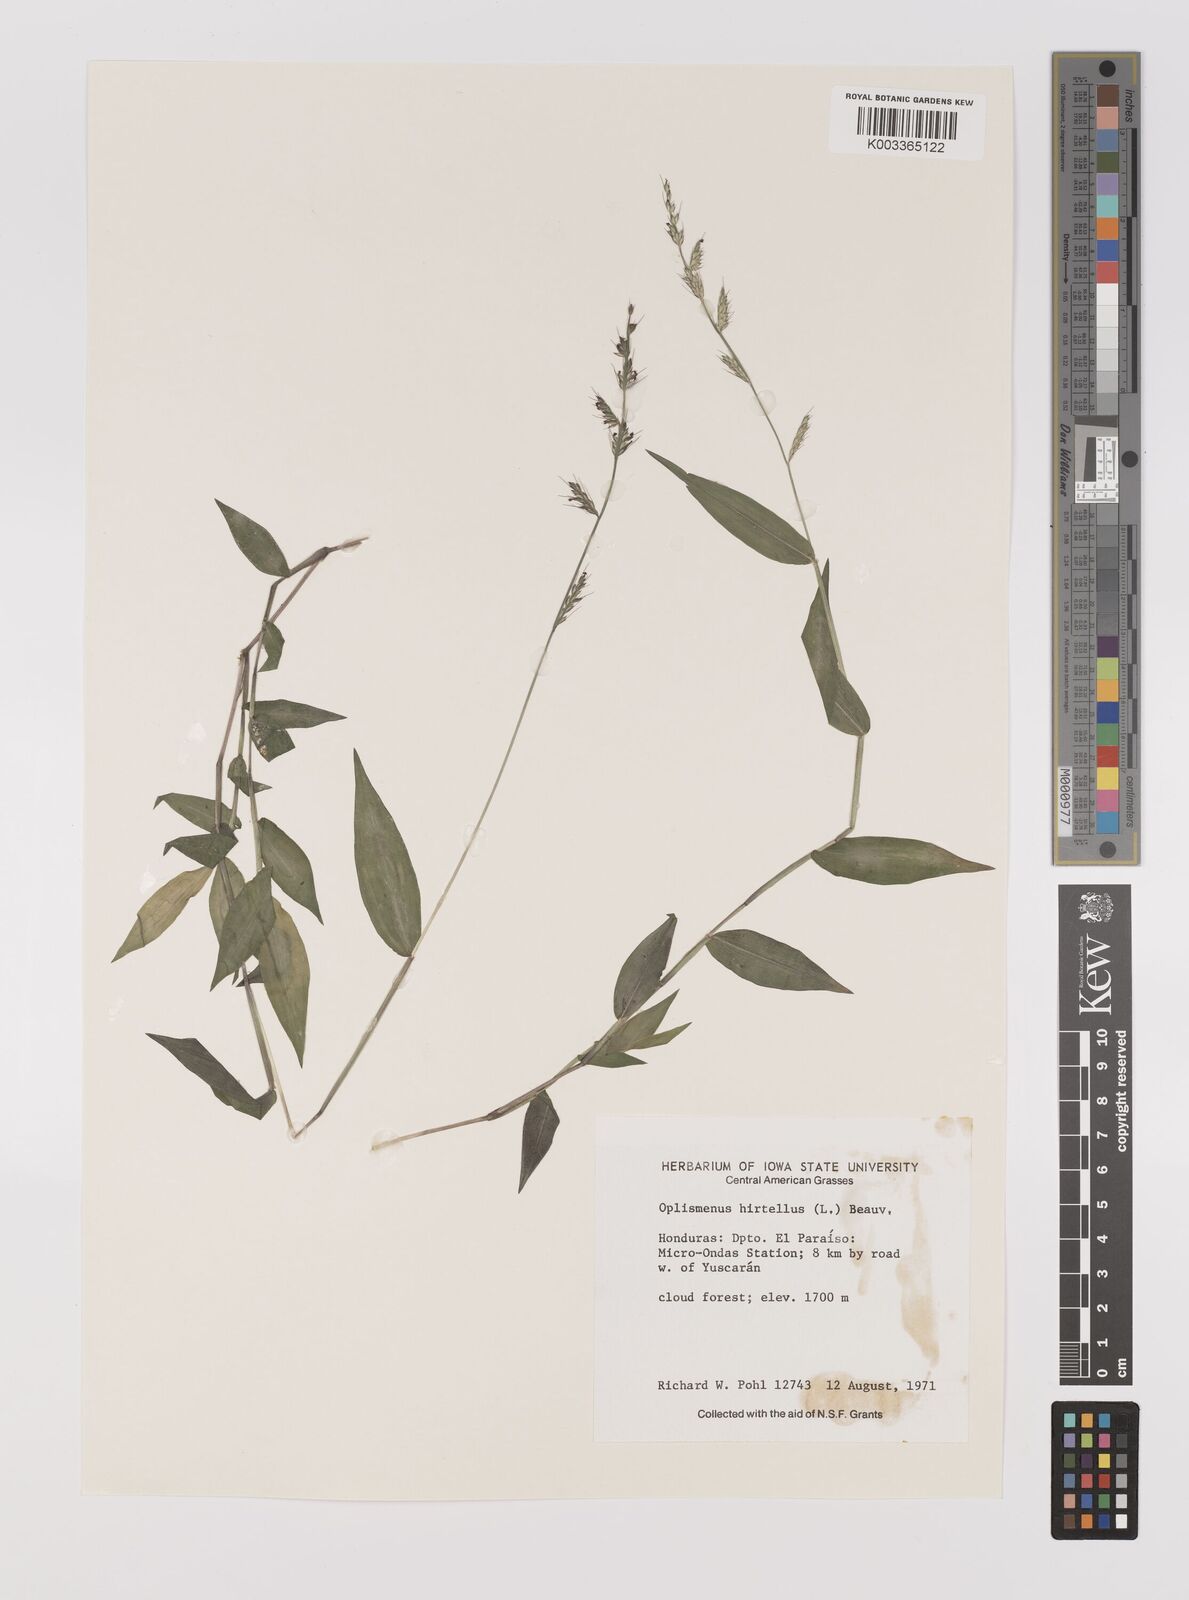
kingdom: Plantae
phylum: Tracheophyta
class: Liliopsida
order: Poales
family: Poaceae
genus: Oplismenus
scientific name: Oplismenus hirtellus
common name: Basketgrass
